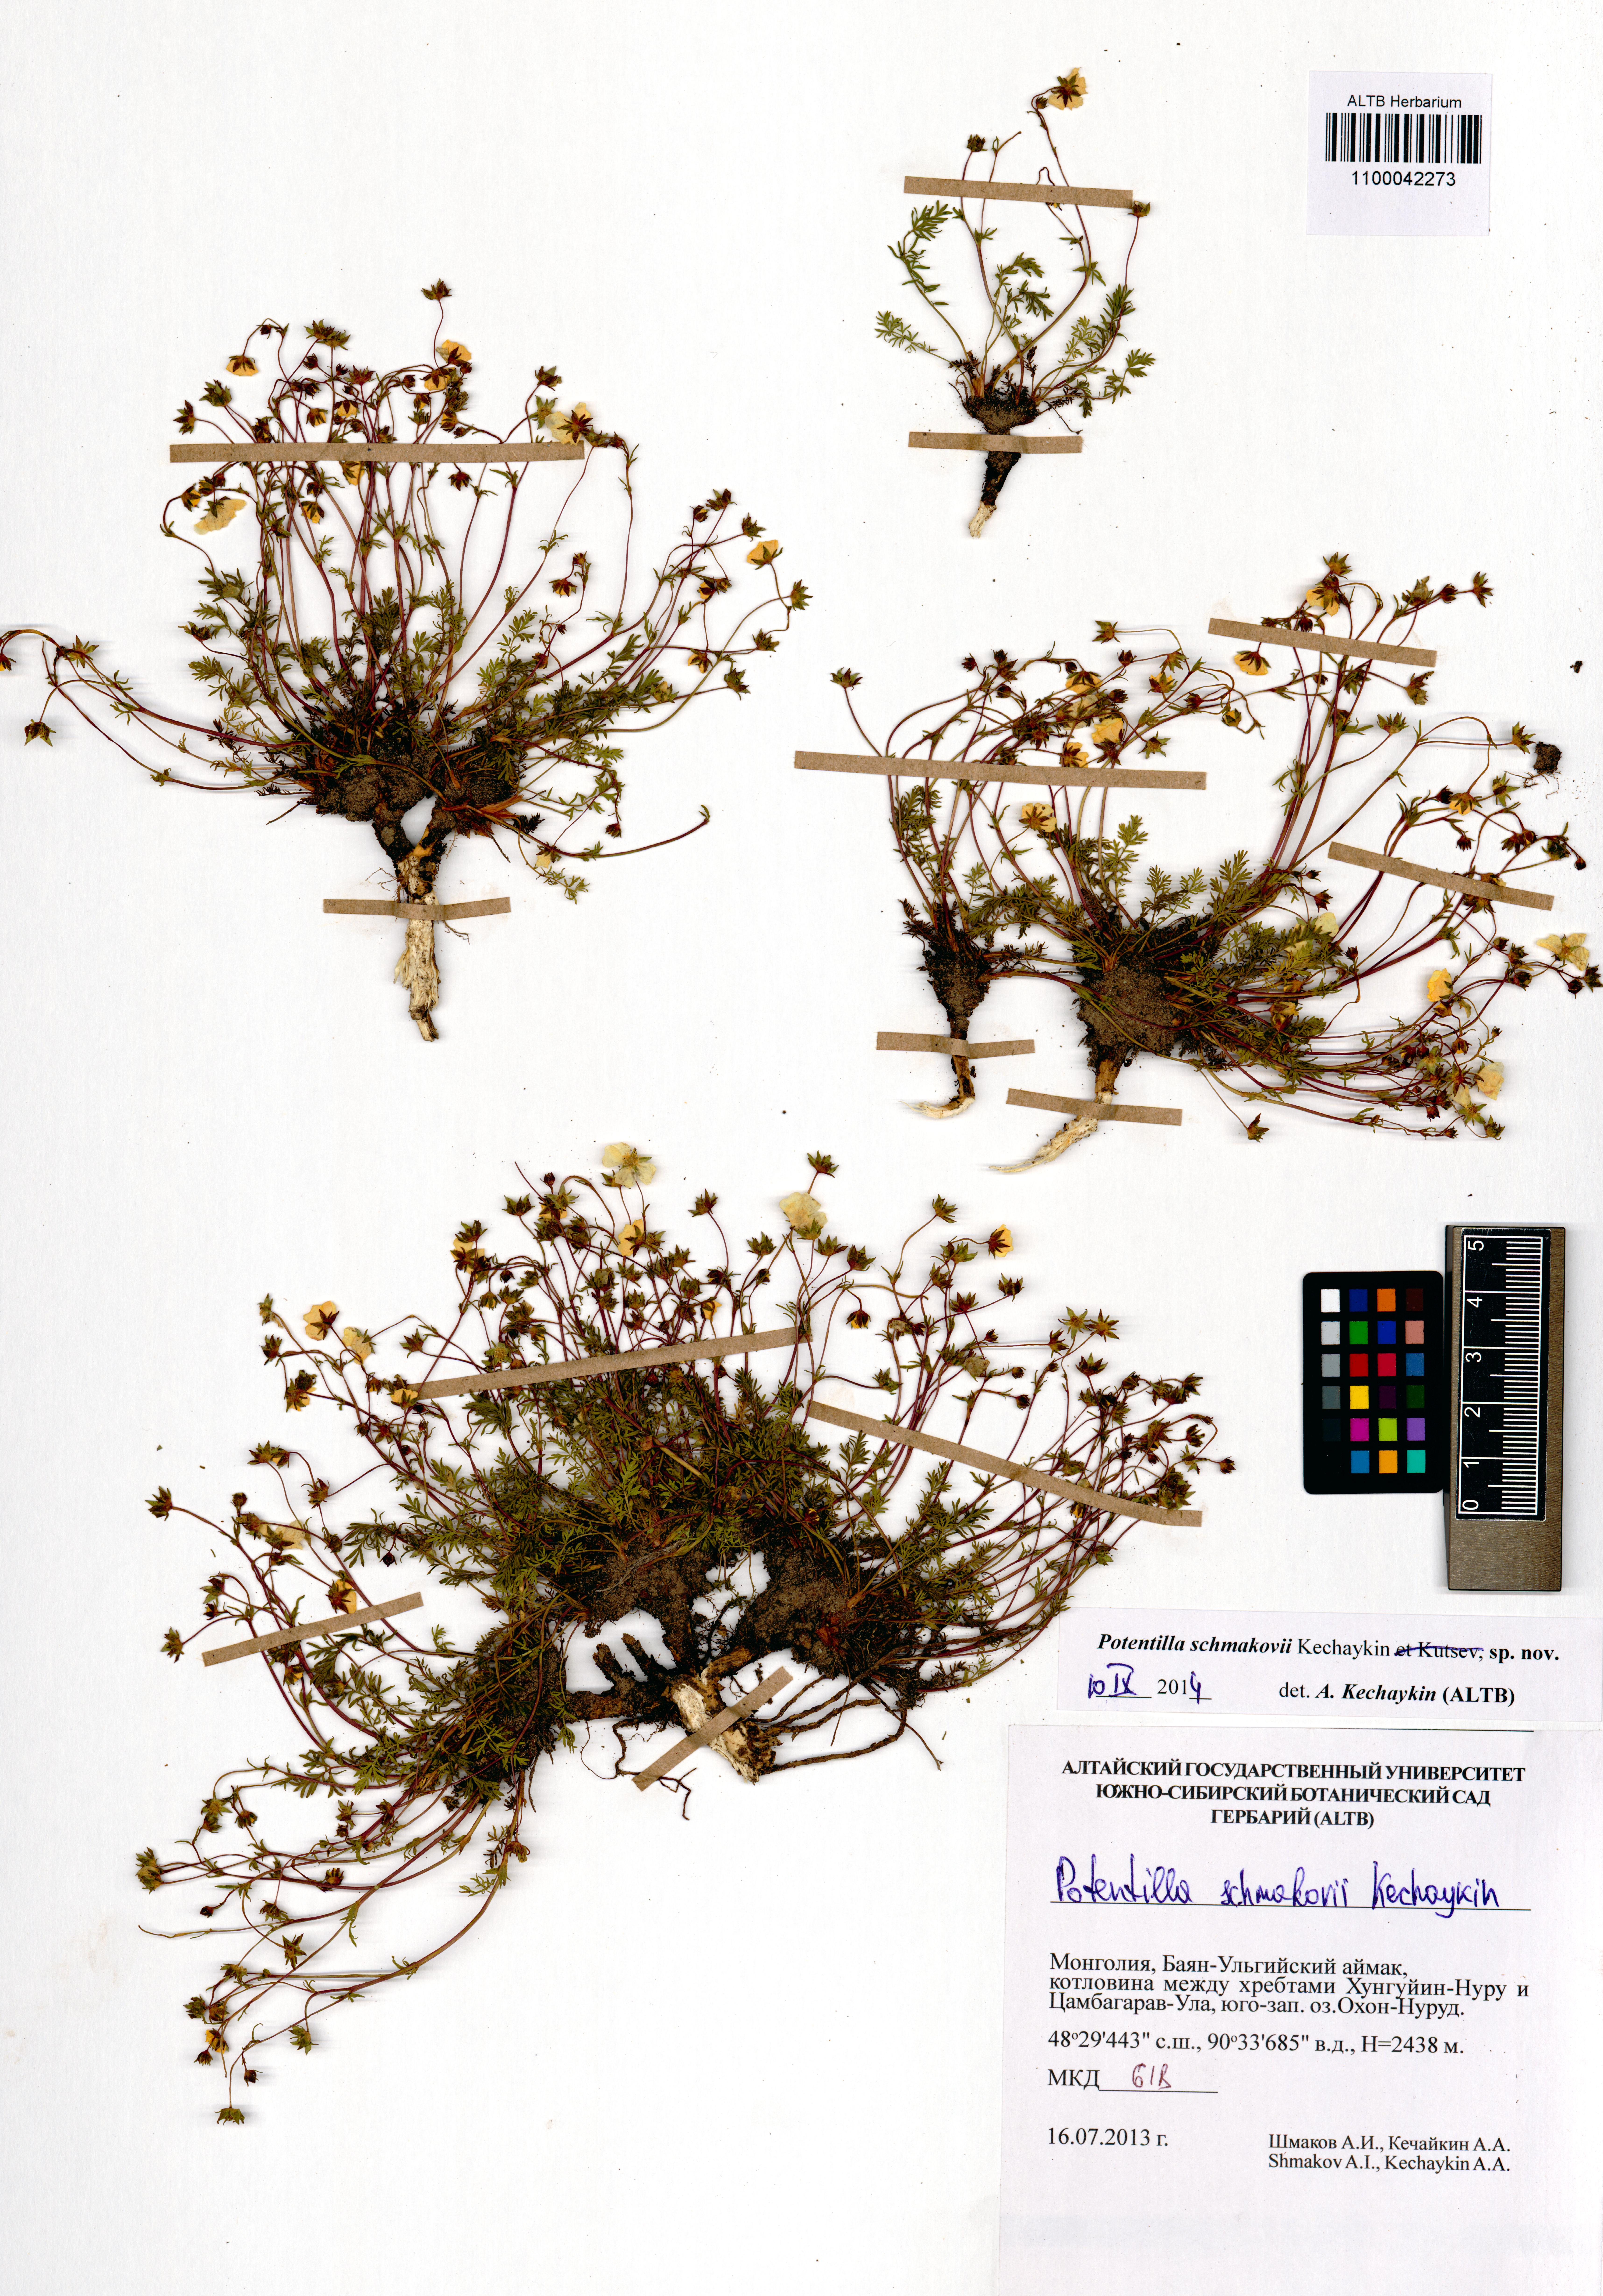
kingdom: Plantae
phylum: Tracheophyta
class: Magnoliopsida
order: Rosales
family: Rosaceae
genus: Potentilla
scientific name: Potentilla schmakovii
